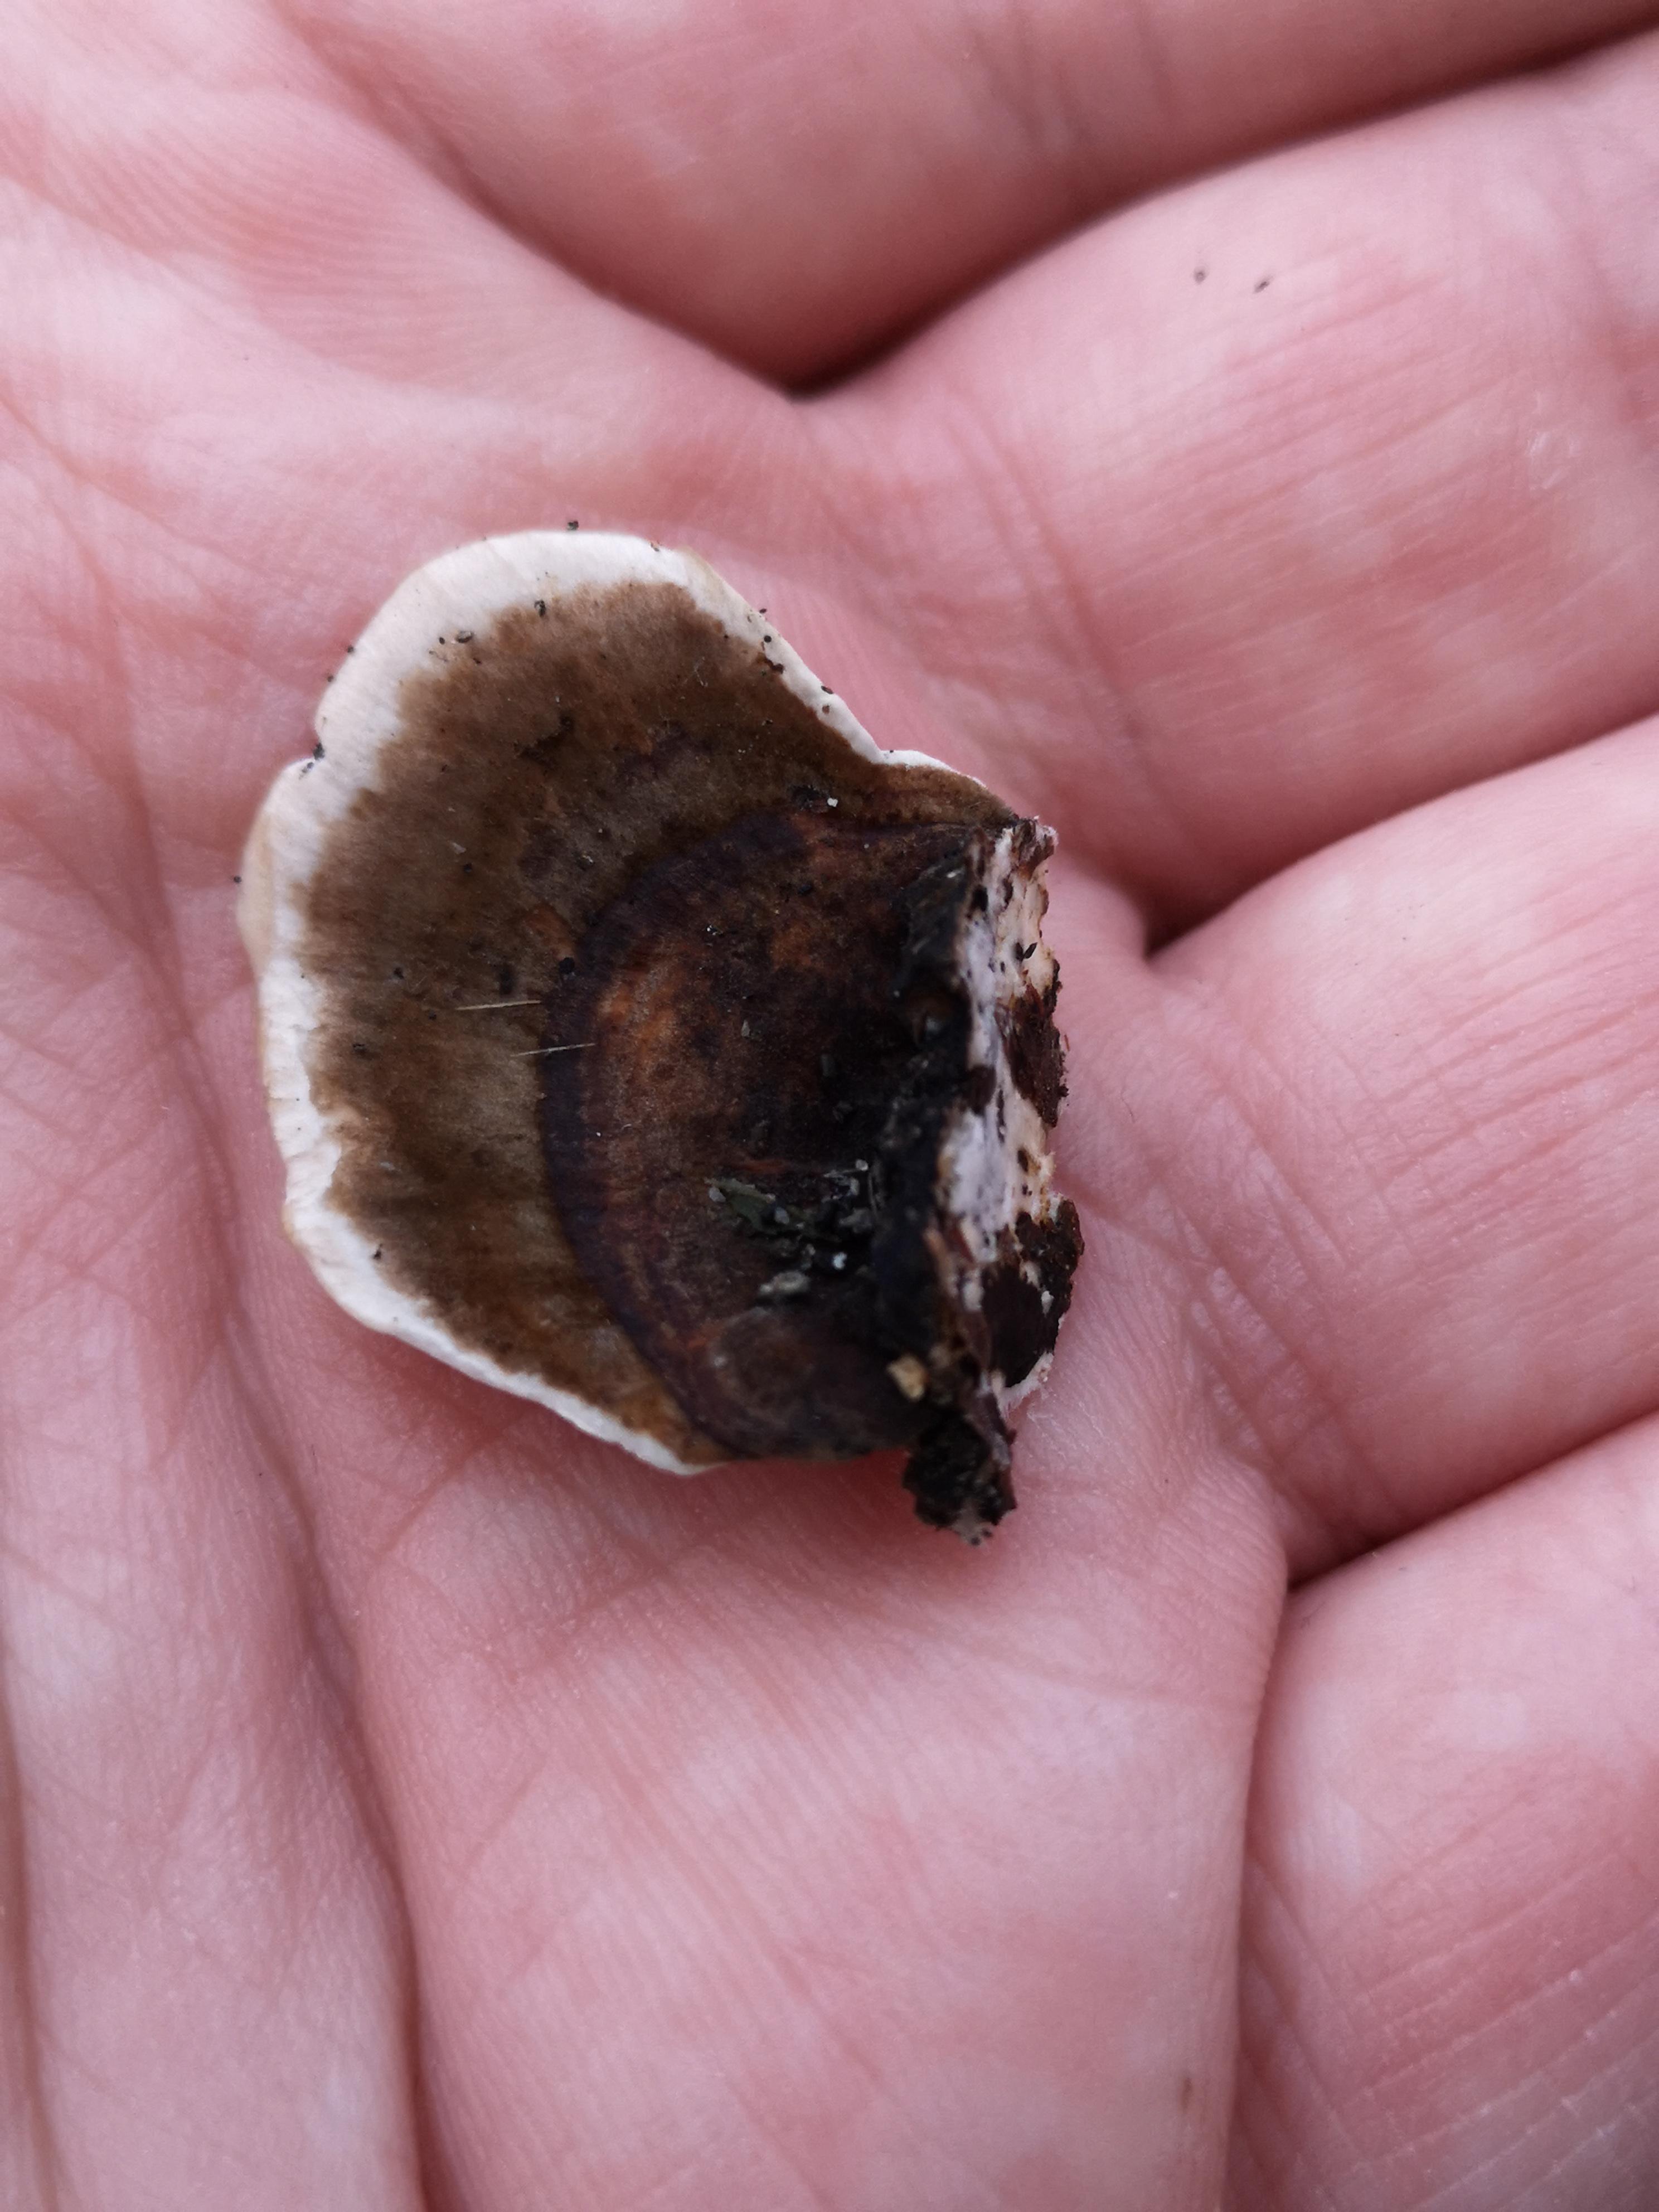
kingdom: Fungi
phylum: Basidiomycota
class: Agaricomycetes
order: Polyporales
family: Polyporaceae
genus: Trametes
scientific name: Trametes versicolor
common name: broget læderporesvamp
